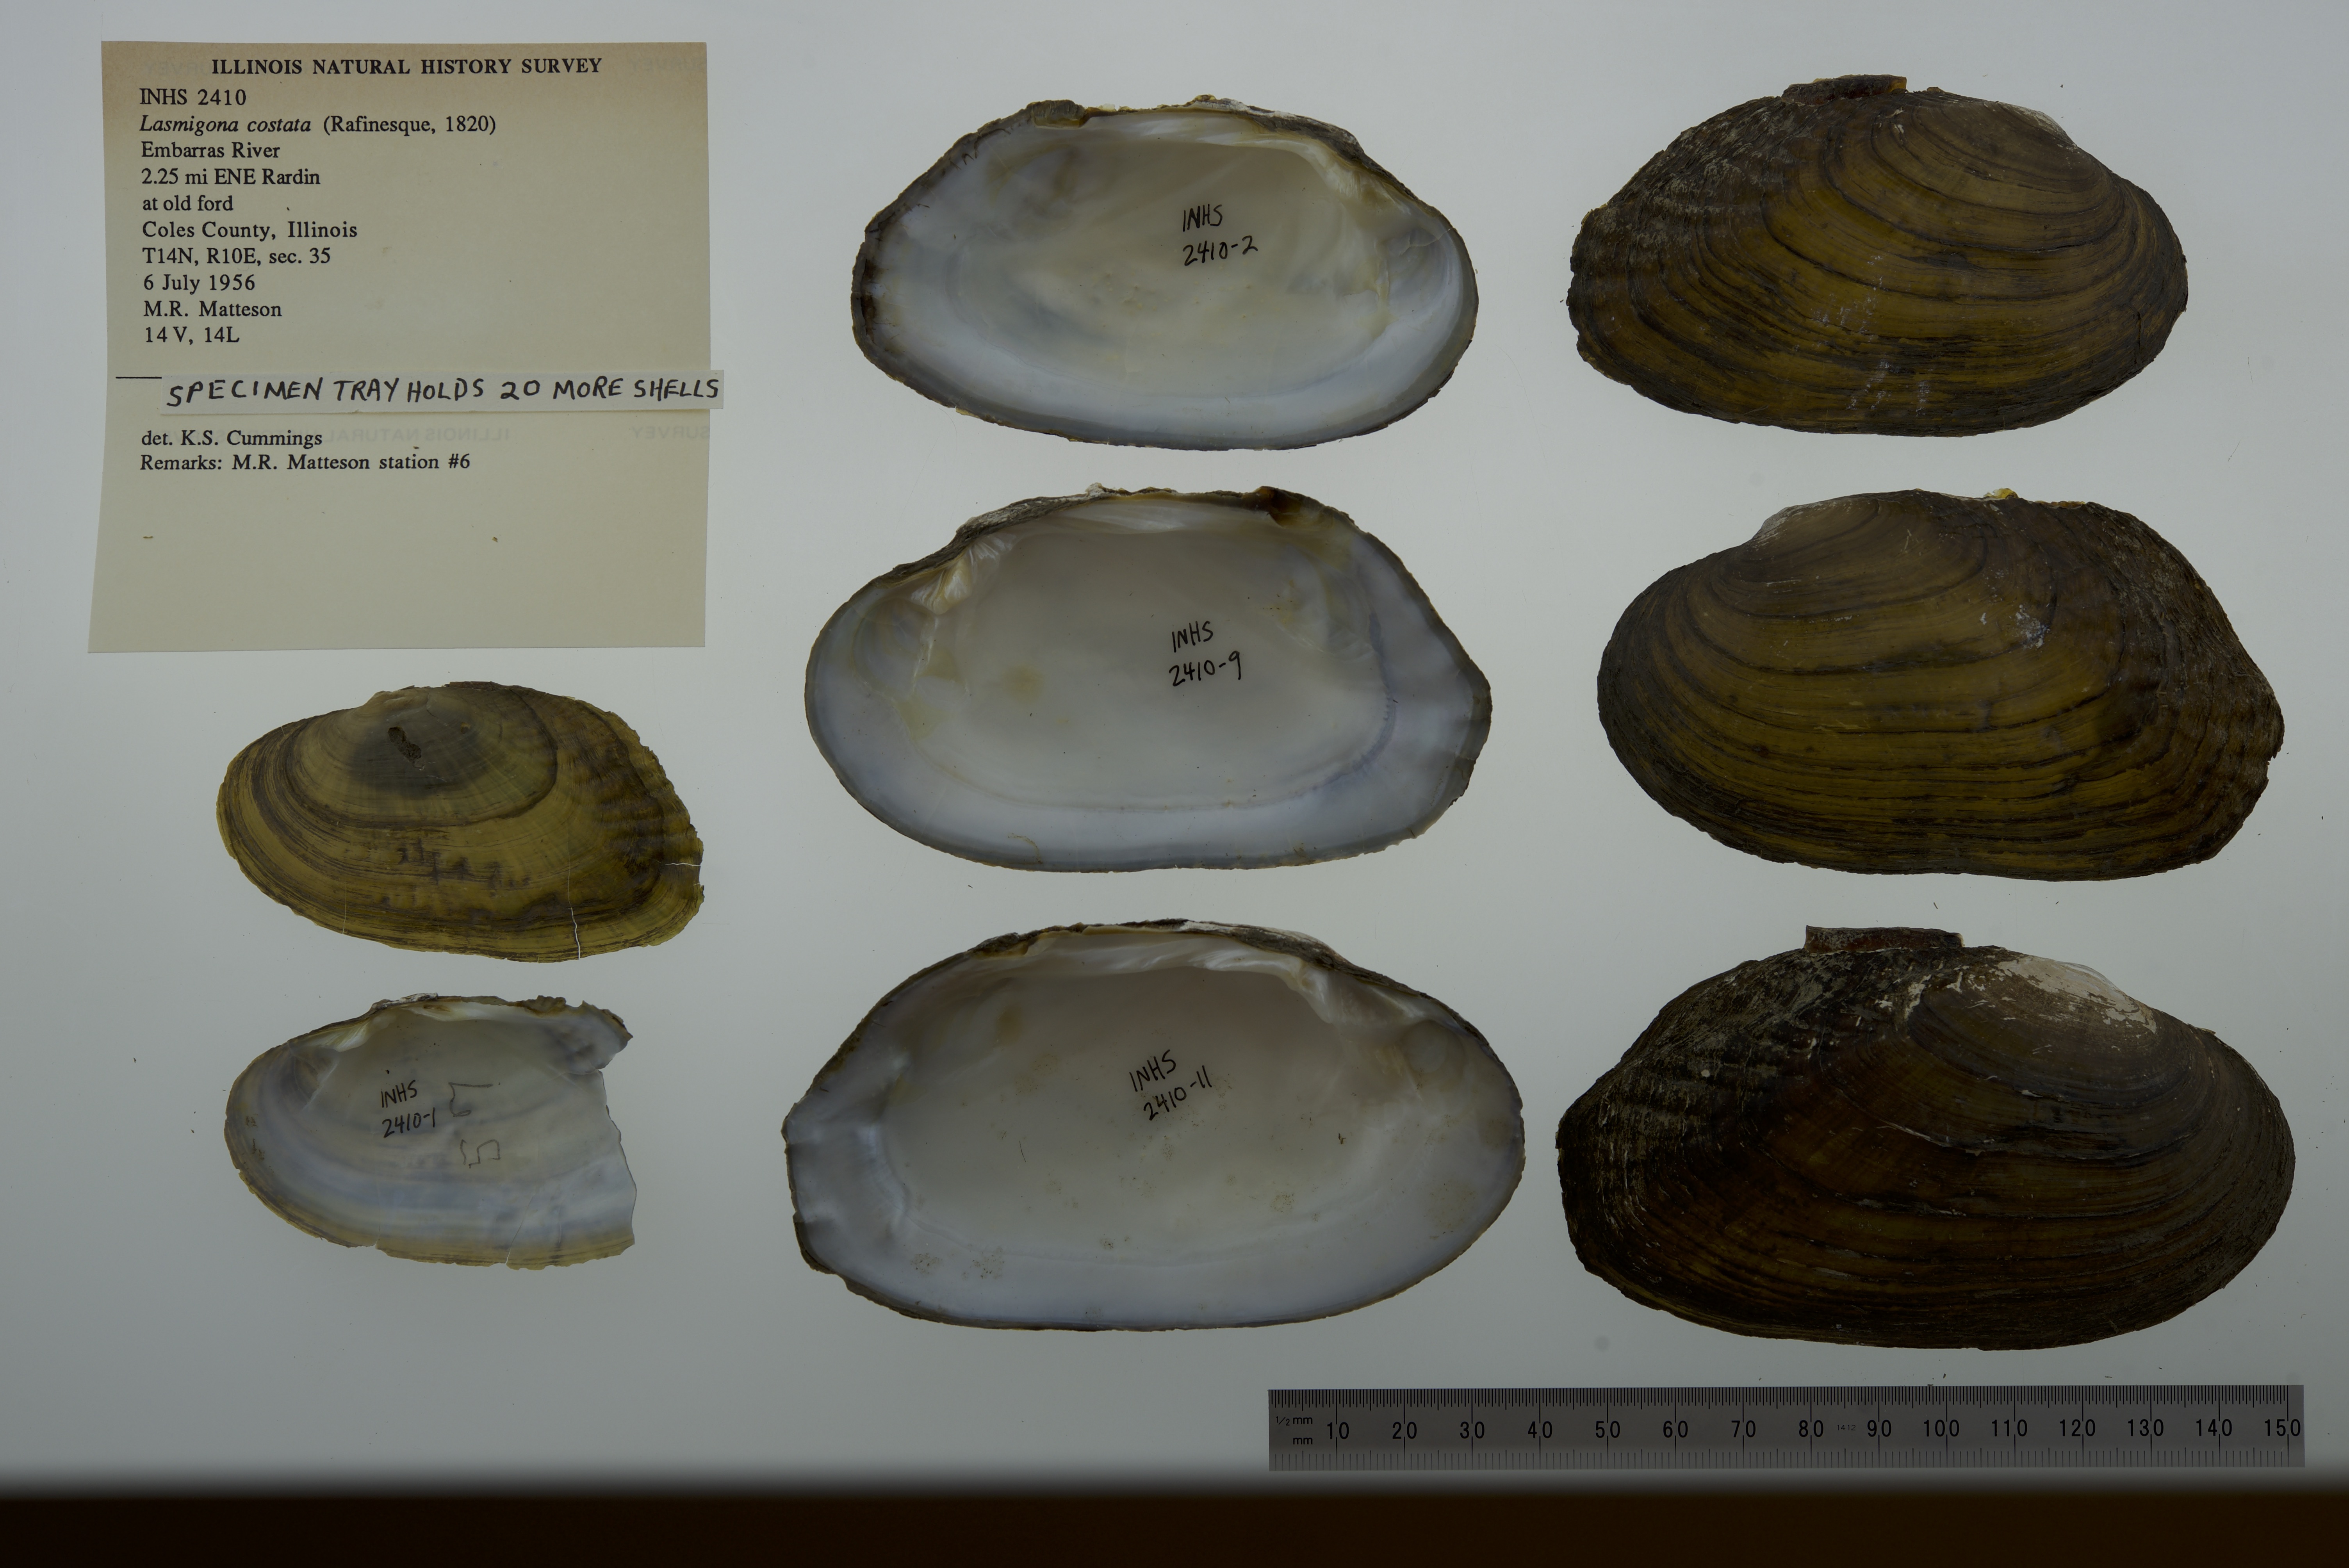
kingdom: Animalia
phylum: Mollusca
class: Bivalvia
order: Unionida
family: Unionidae
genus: Lasmigona
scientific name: Lasmigona costata
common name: Flutedshell
